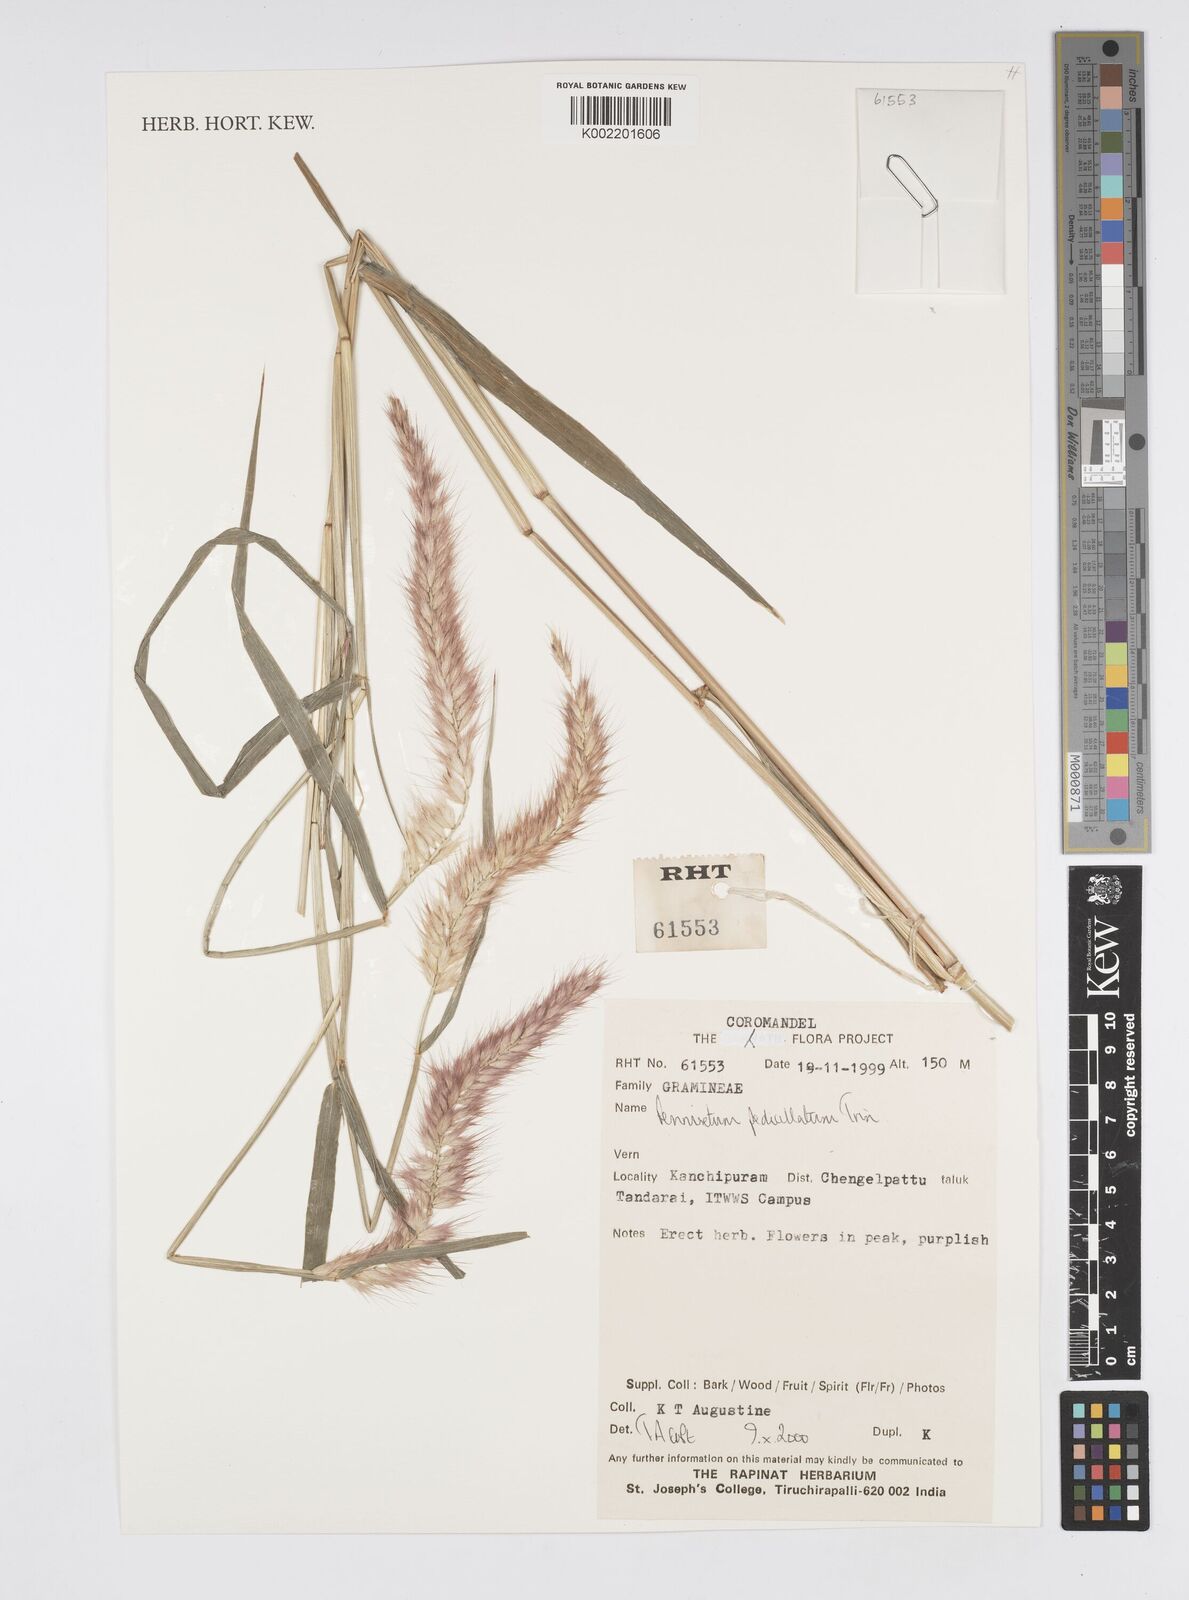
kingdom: Plantae
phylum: Tracheophyta
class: Liliopsida
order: Poales
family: Poaceae
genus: Cenchrus
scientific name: Cenchrus pedicellatus
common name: Hairy fountain grass
